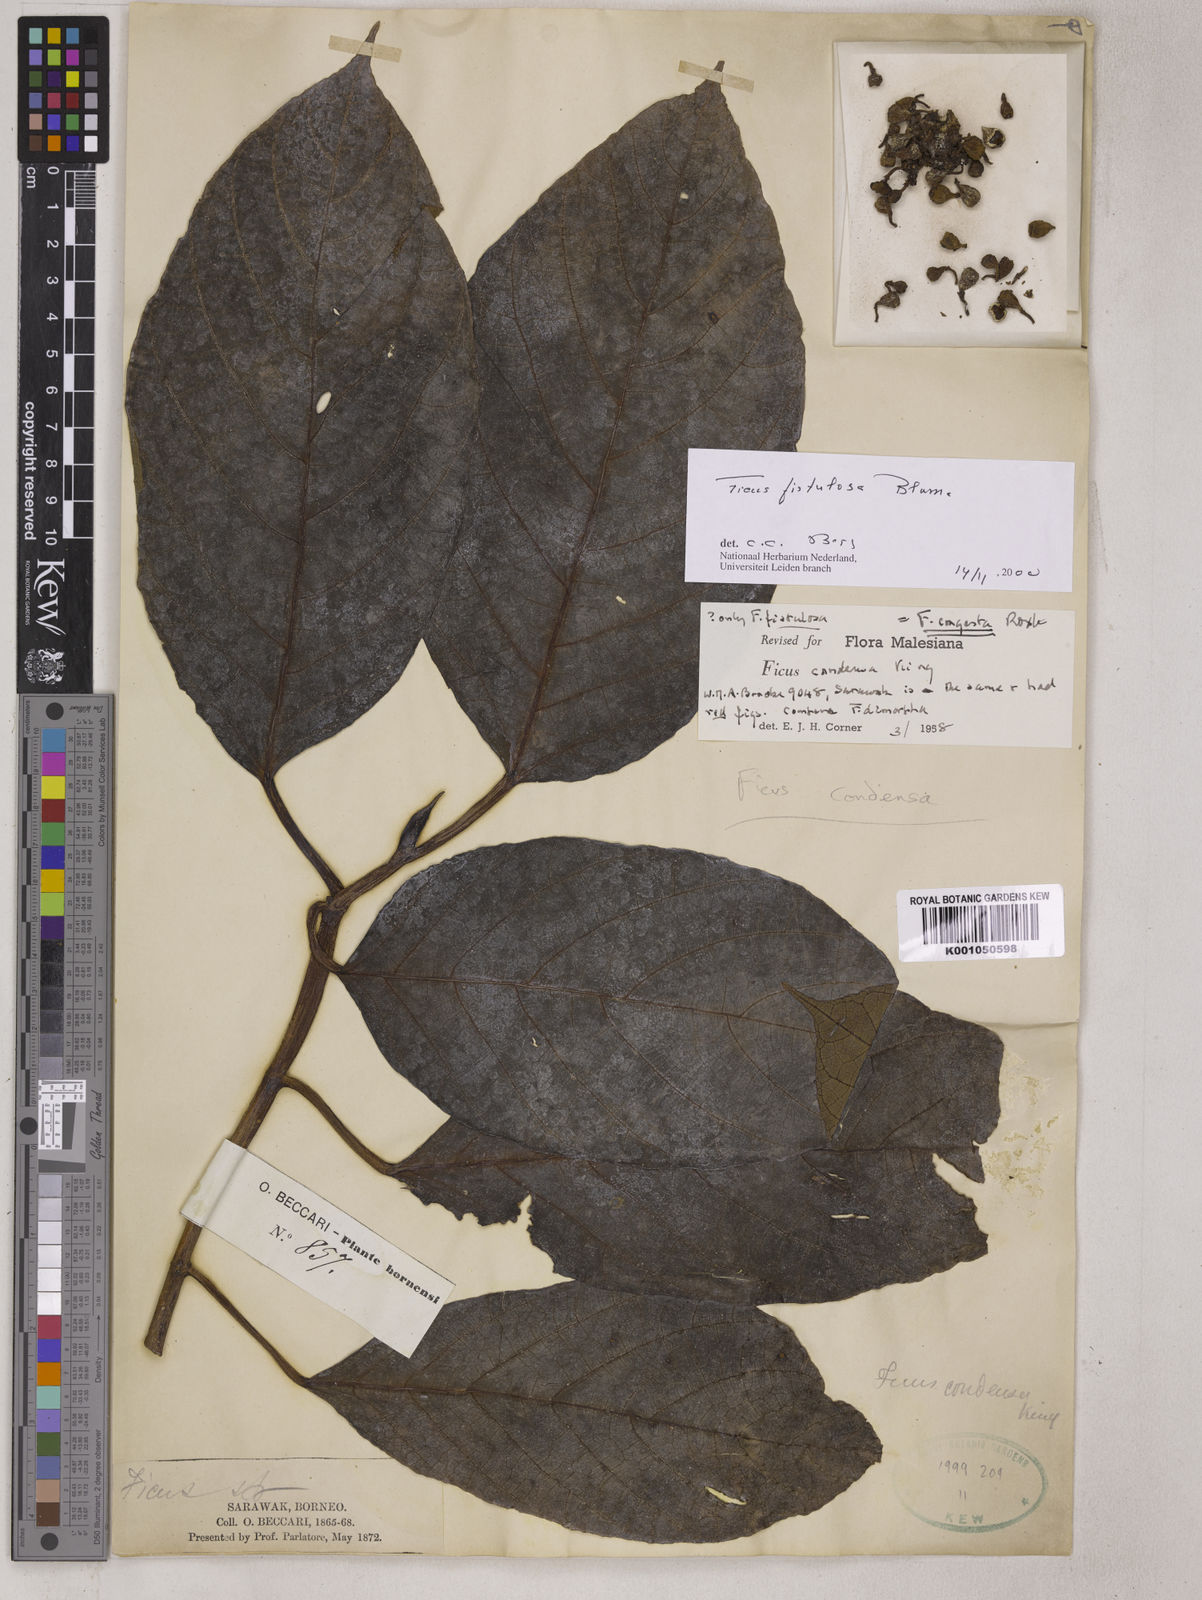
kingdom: Plantae
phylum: Tracheophyta
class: Magnoliopsida
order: Rosales
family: Moraceae
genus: Ficus
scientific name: Ficus fistulosa
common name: Figs
